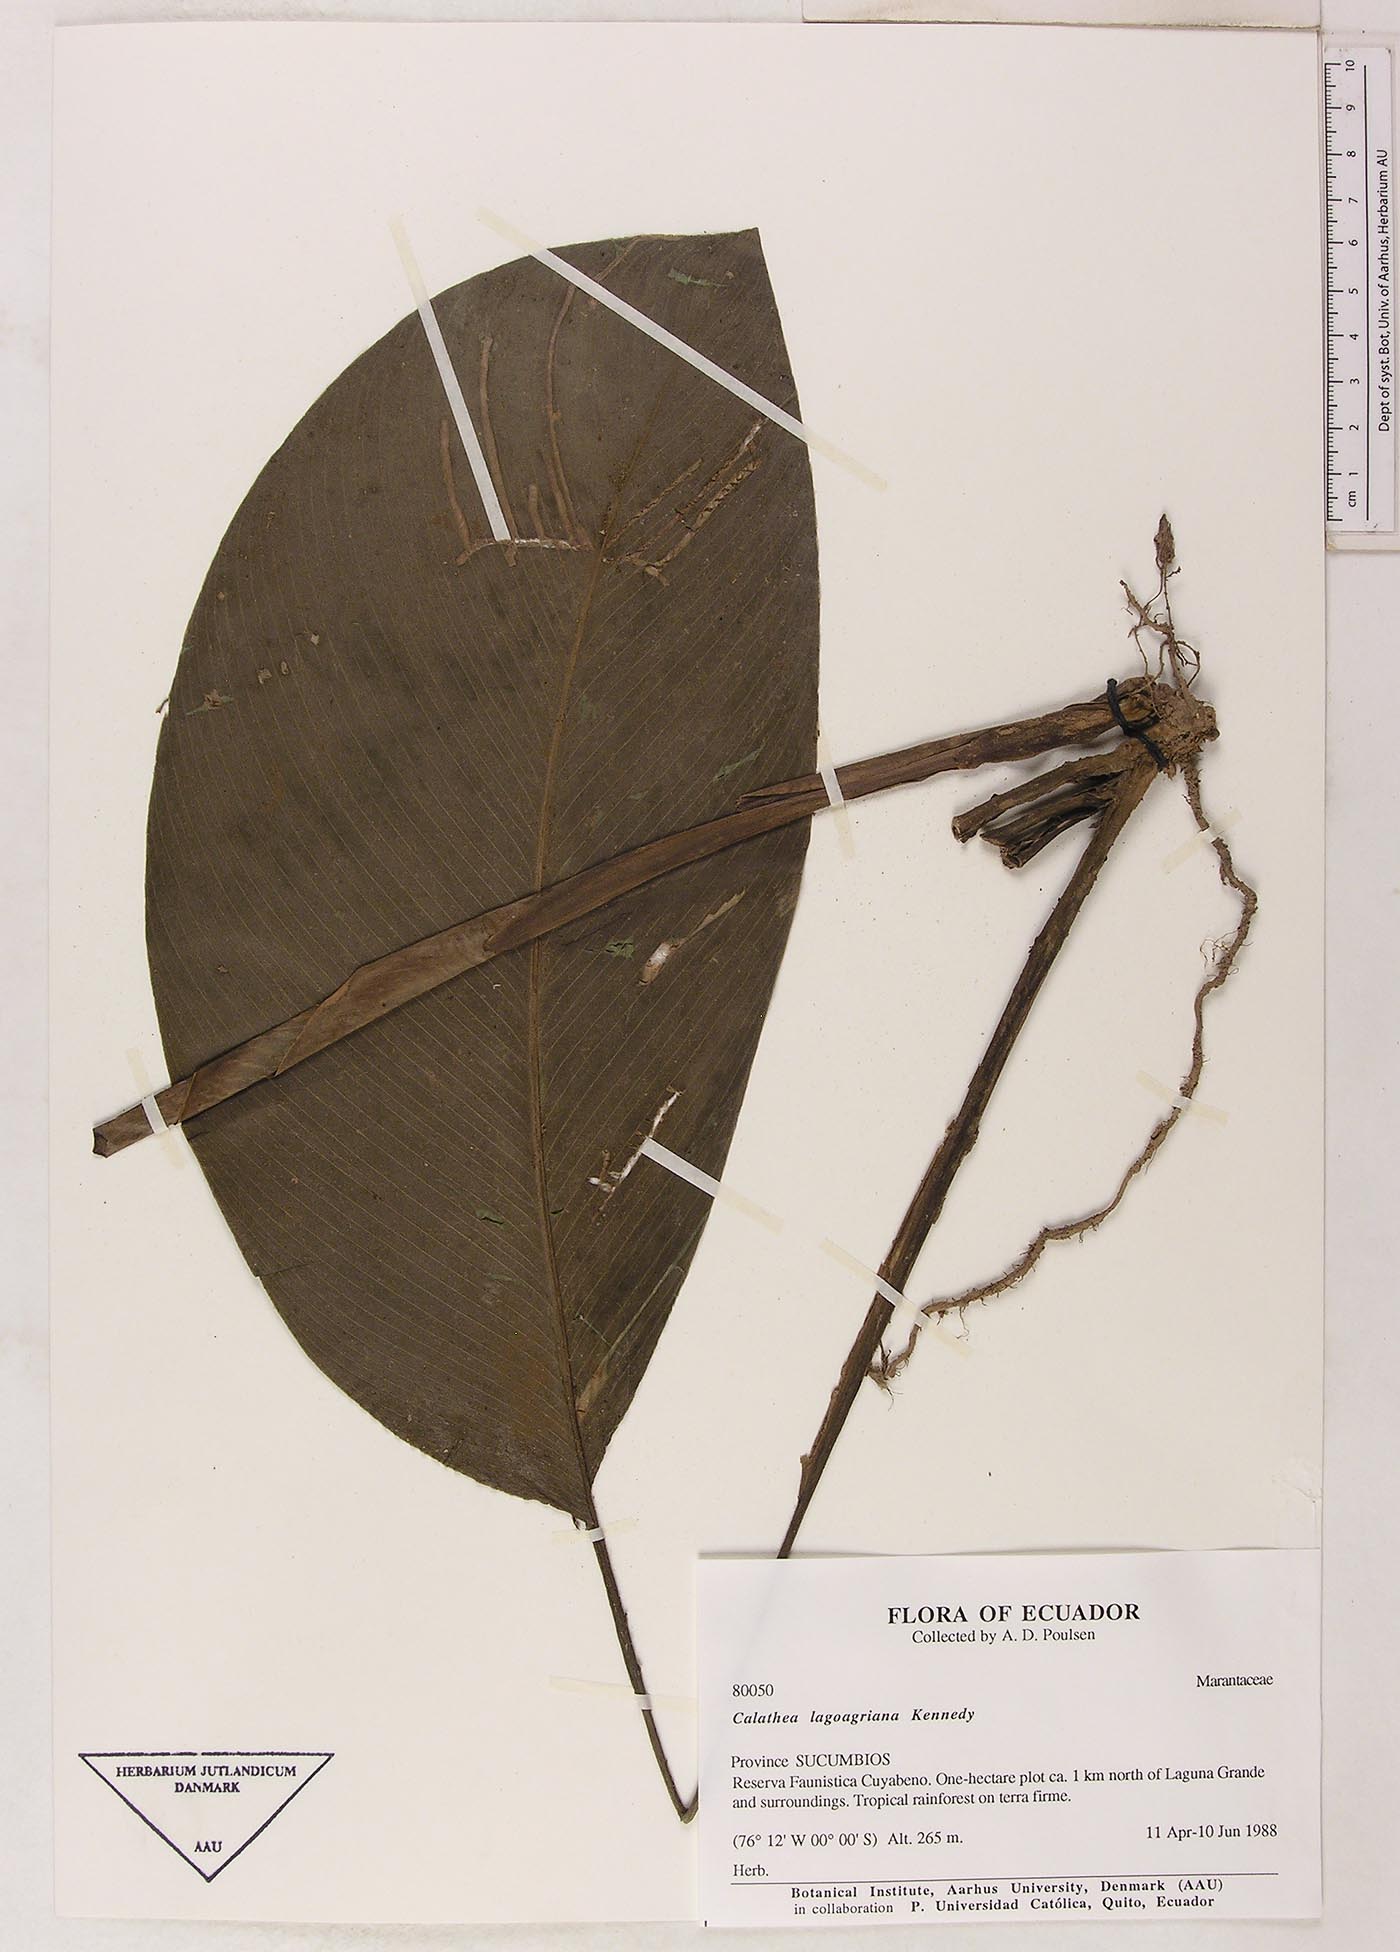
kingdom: Plantae
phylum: Tracheophyta
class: Liliopsida
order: Zingiberales
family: Marantaceae
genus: Goeppertia
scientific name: Goeppertia lagoagriana
